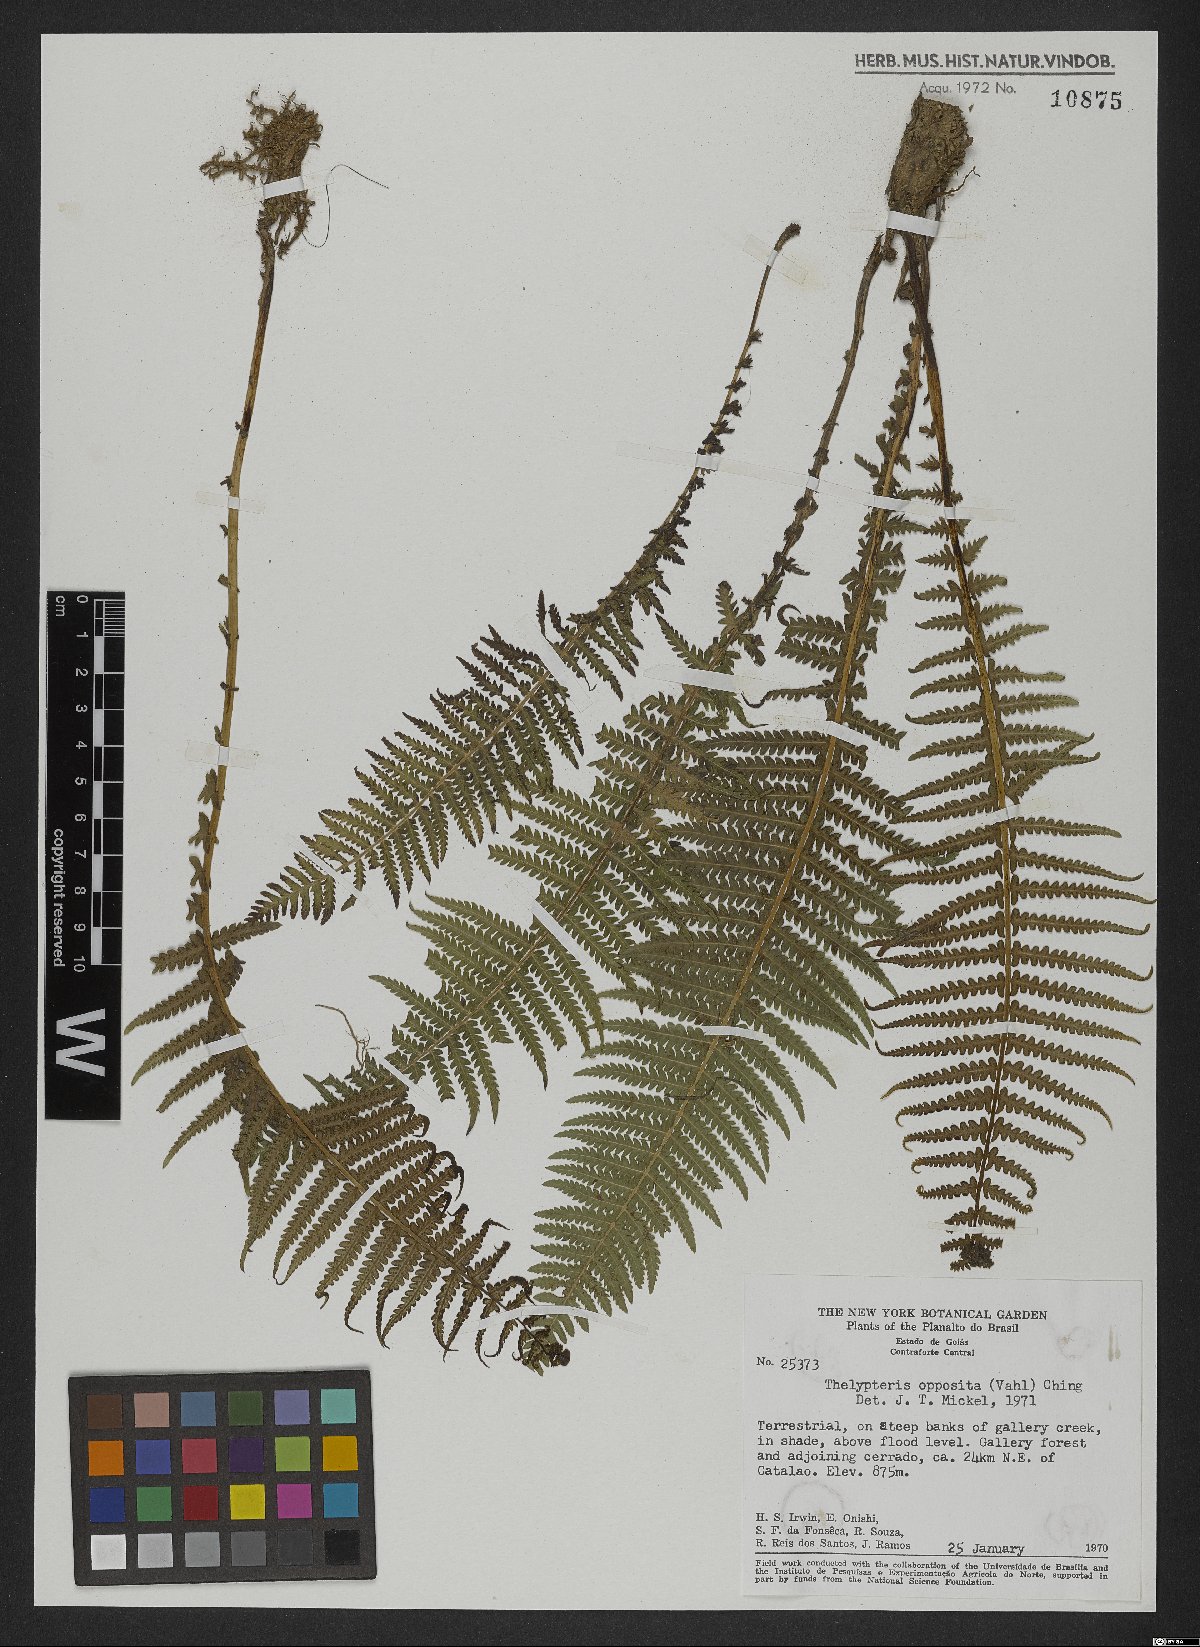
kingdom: Plantae
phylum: Tracheophyta
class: Polypodiopsida
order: Polypodiales
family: Thelypteridaceae
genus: Amauropelta
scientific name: Amauropelta opposita
